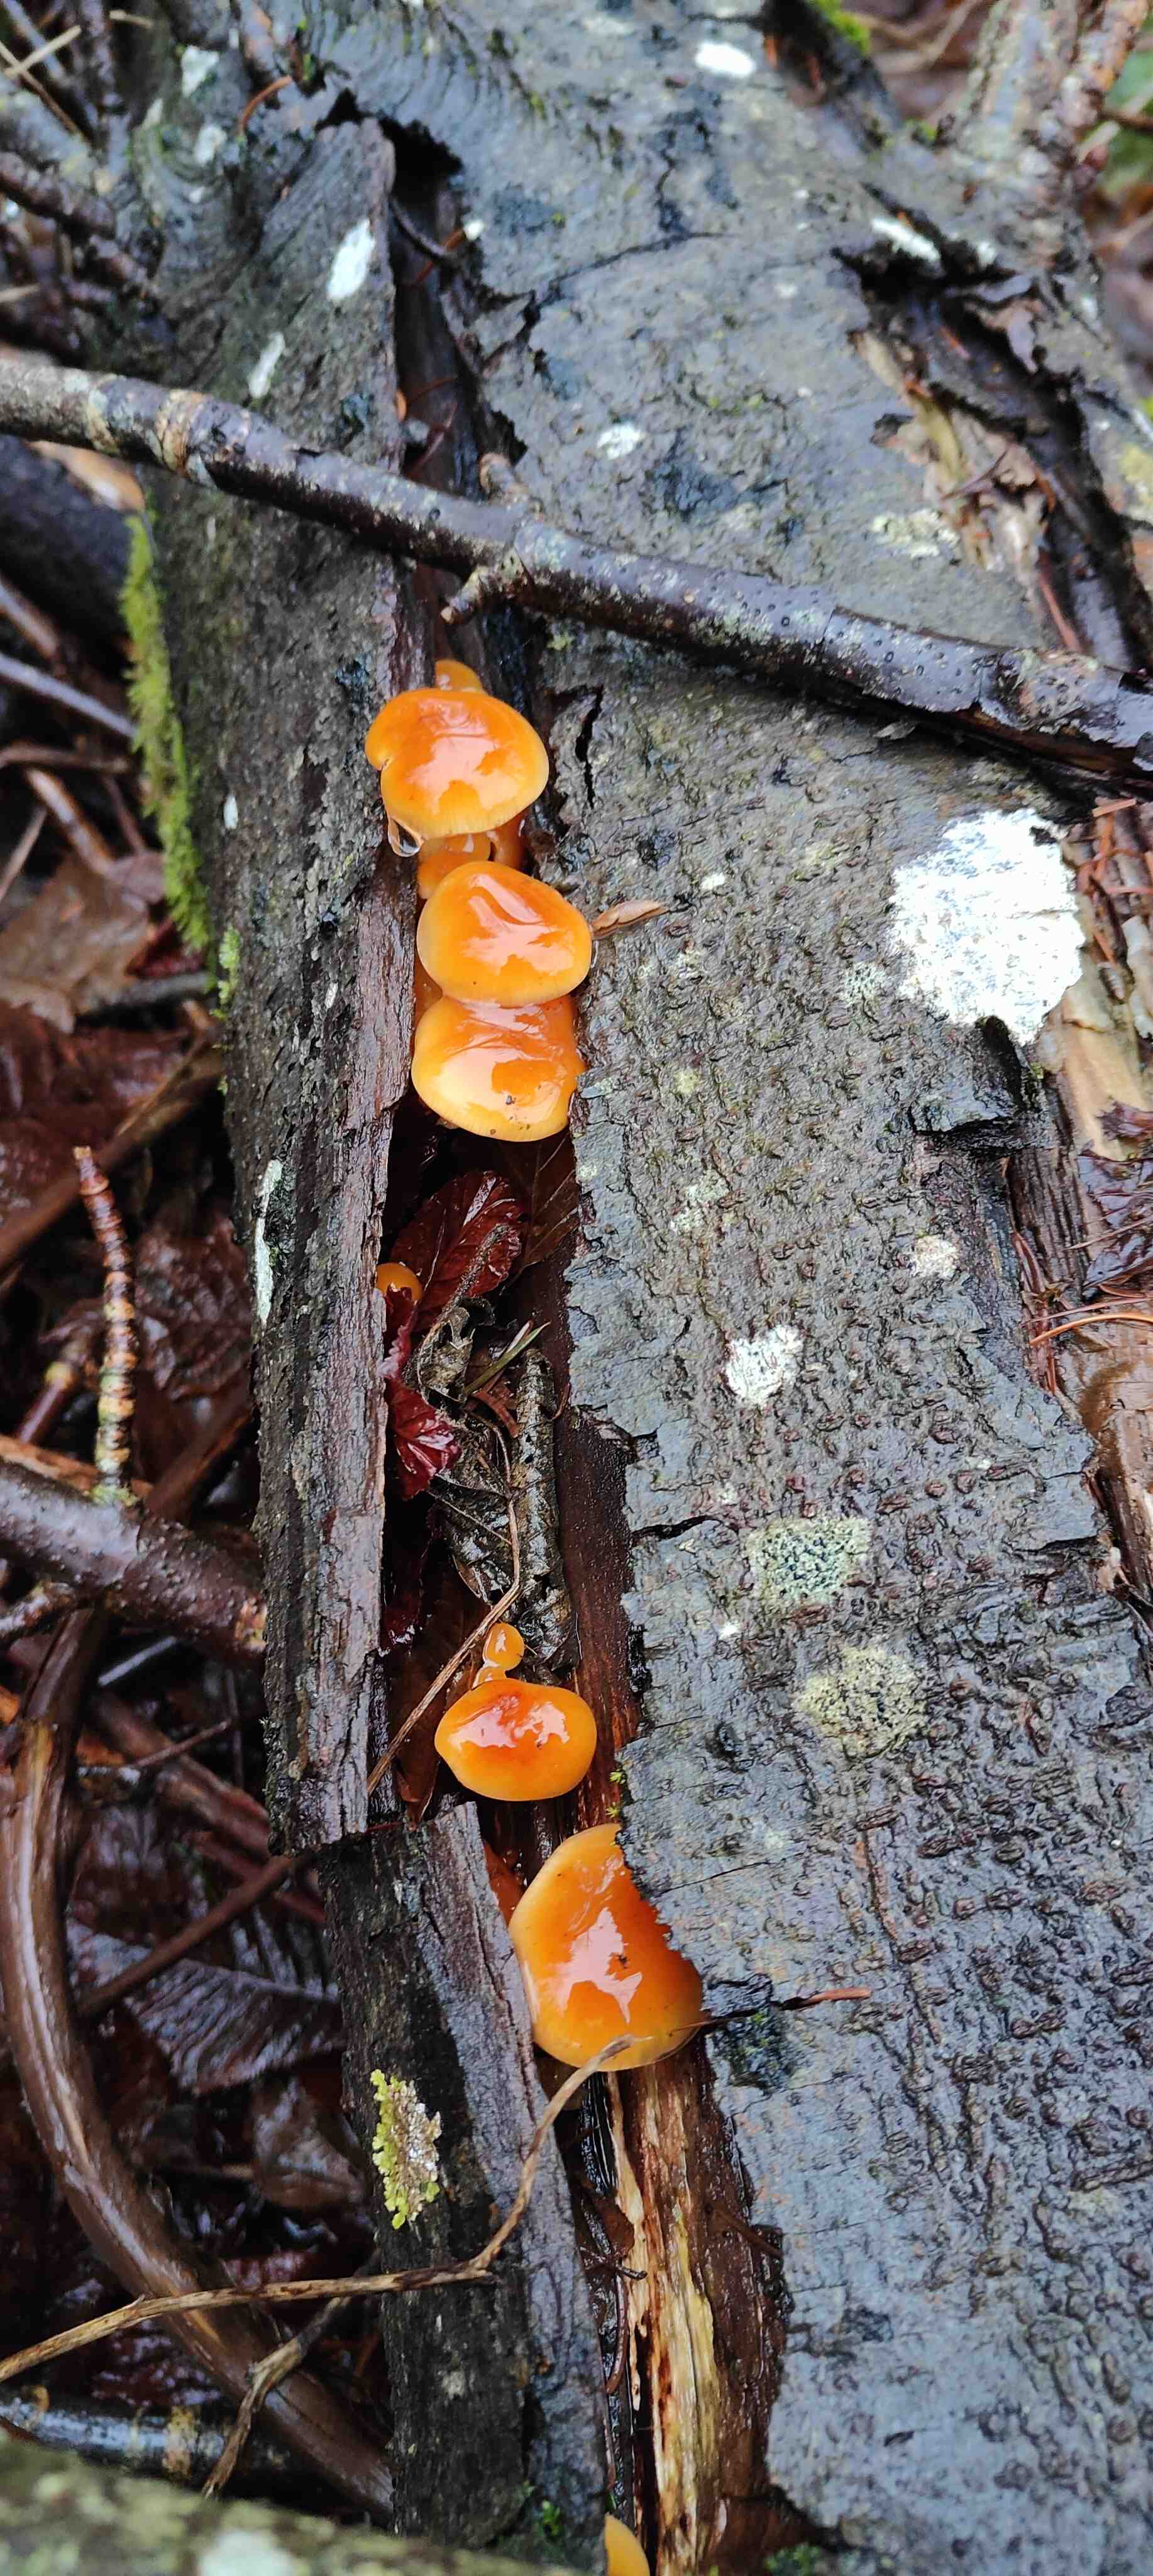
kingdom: Fungi
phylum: Basidiomycota
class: Agaricomycetes
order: Agaricales
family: Physalacriaceae
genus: Flammulina
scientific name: Flammulina velutipes
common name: gul fløjlsfod
